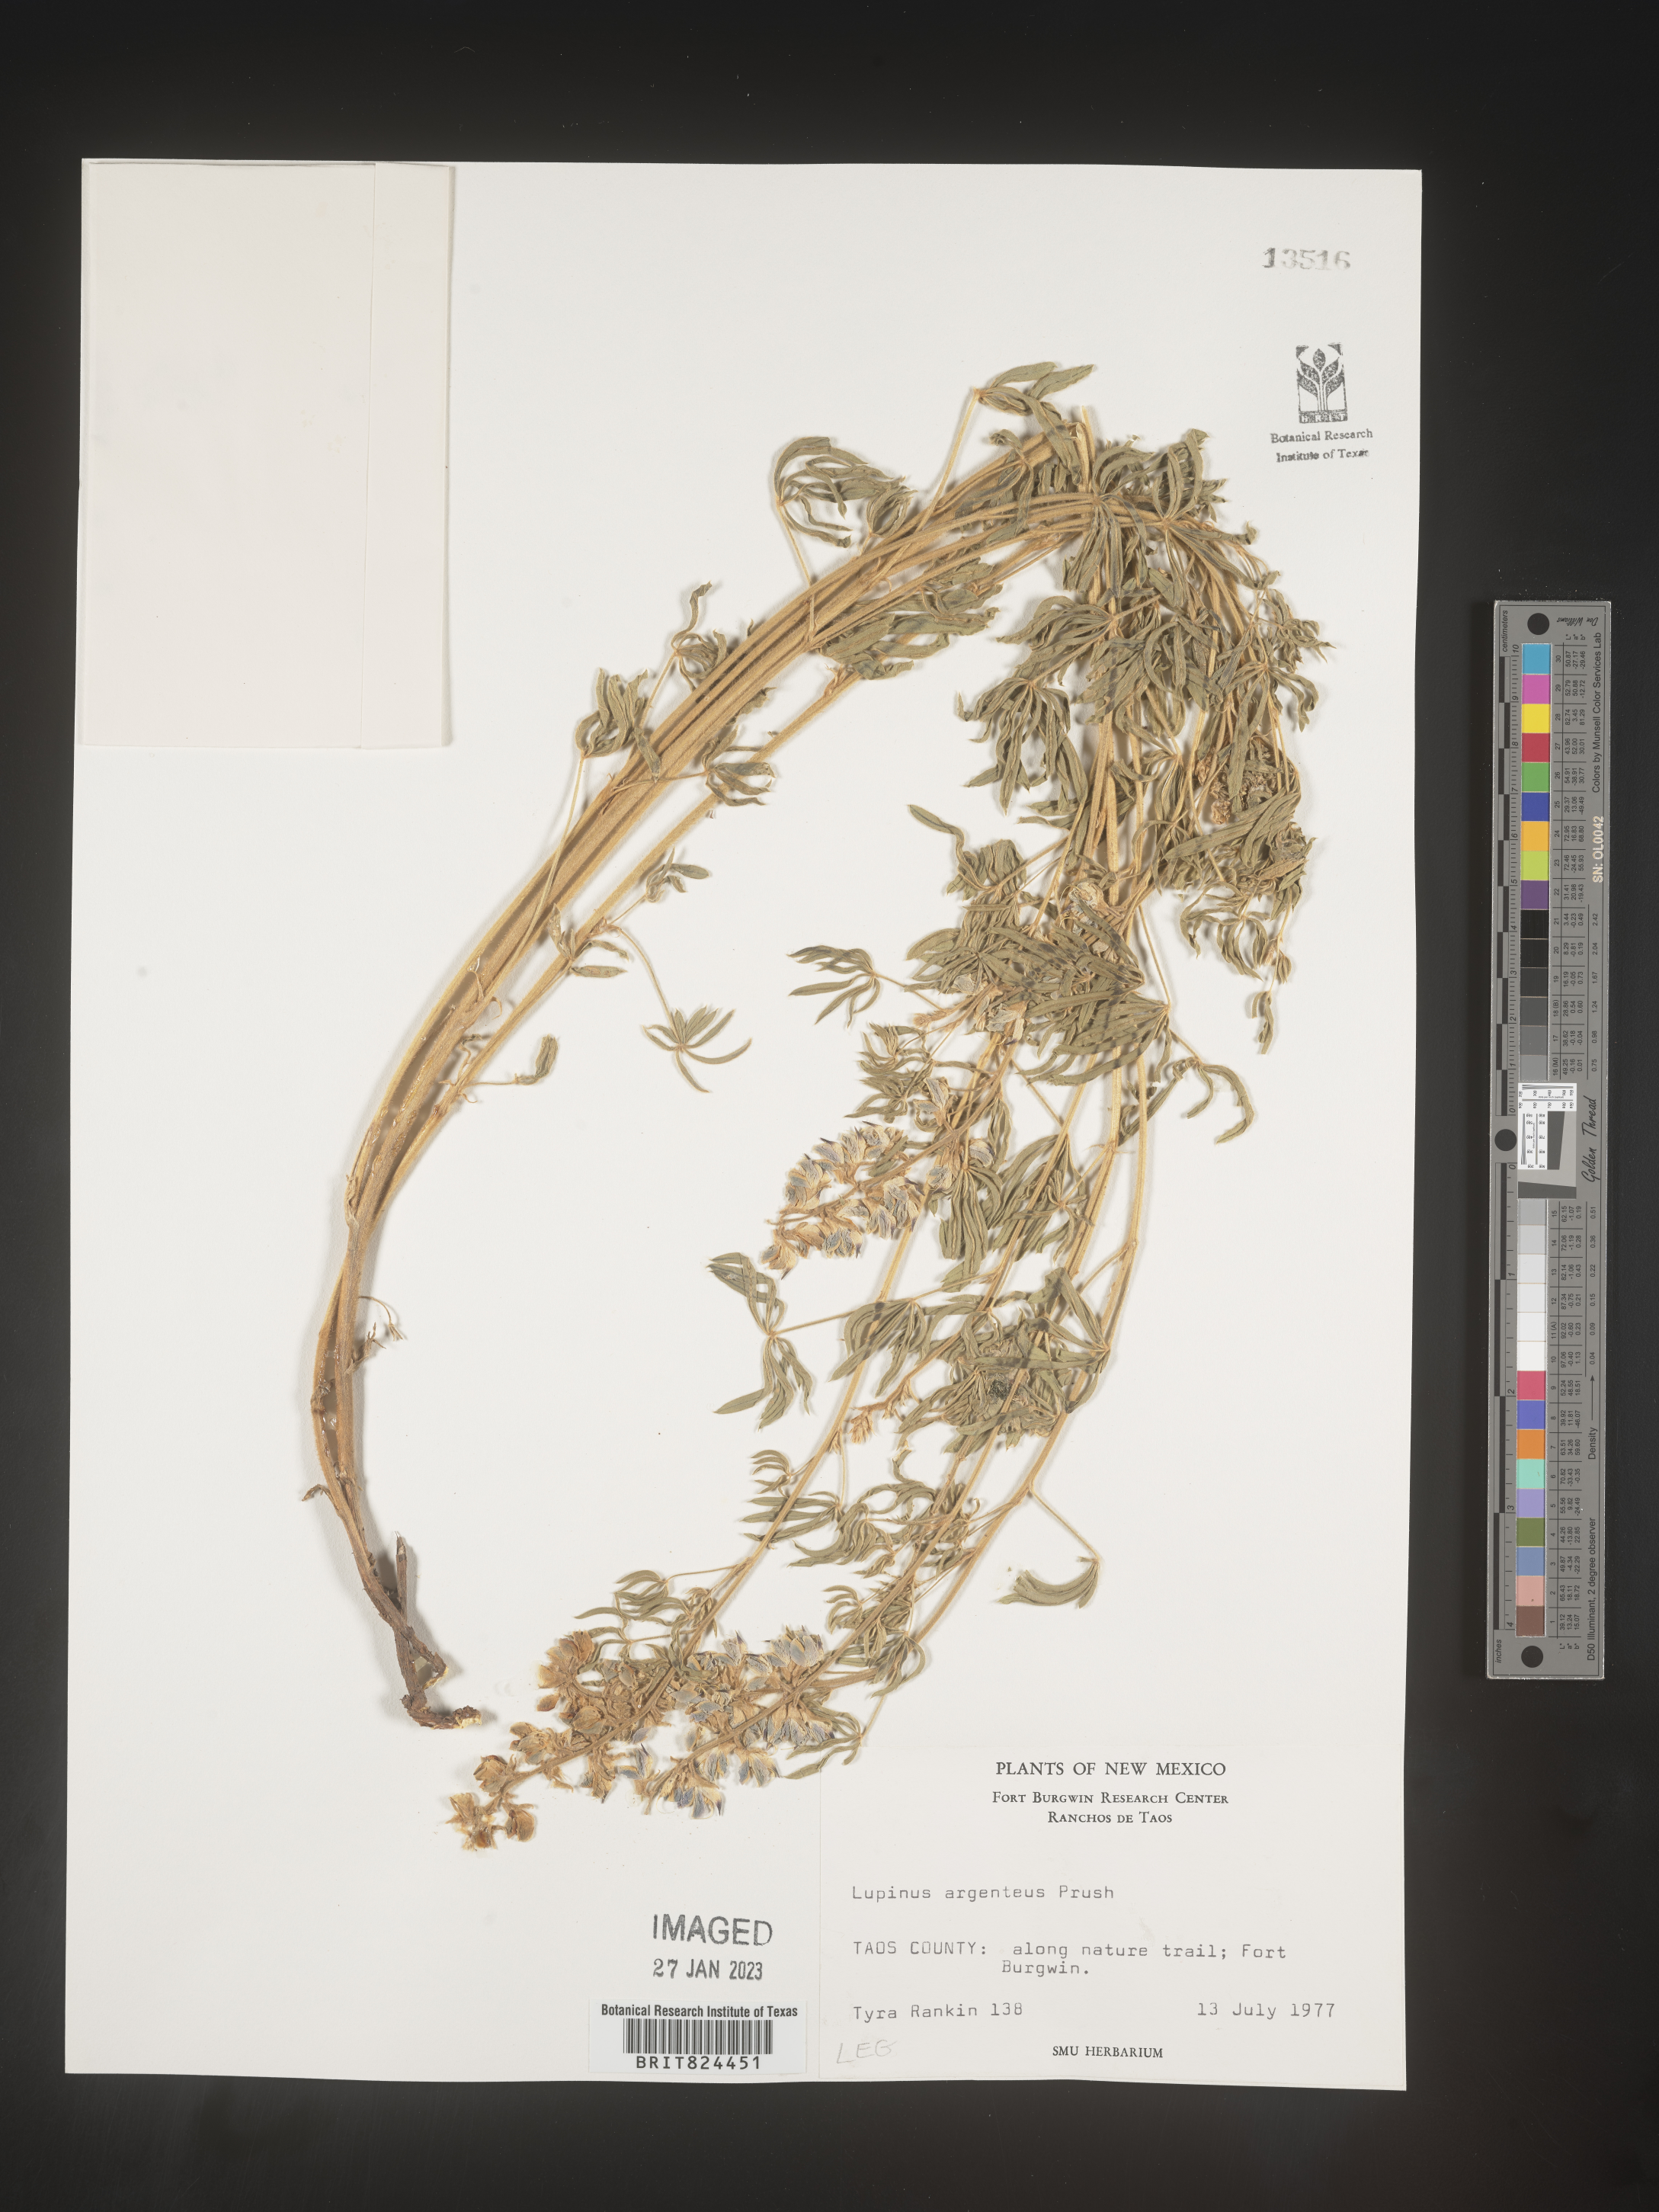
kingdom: Plantae
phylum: Tracheophyta
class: Magnoliopsida
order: Fabales
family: Fabaceae
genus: Lupinus
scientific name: Lupinus argenteus
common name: Silvery lupine
